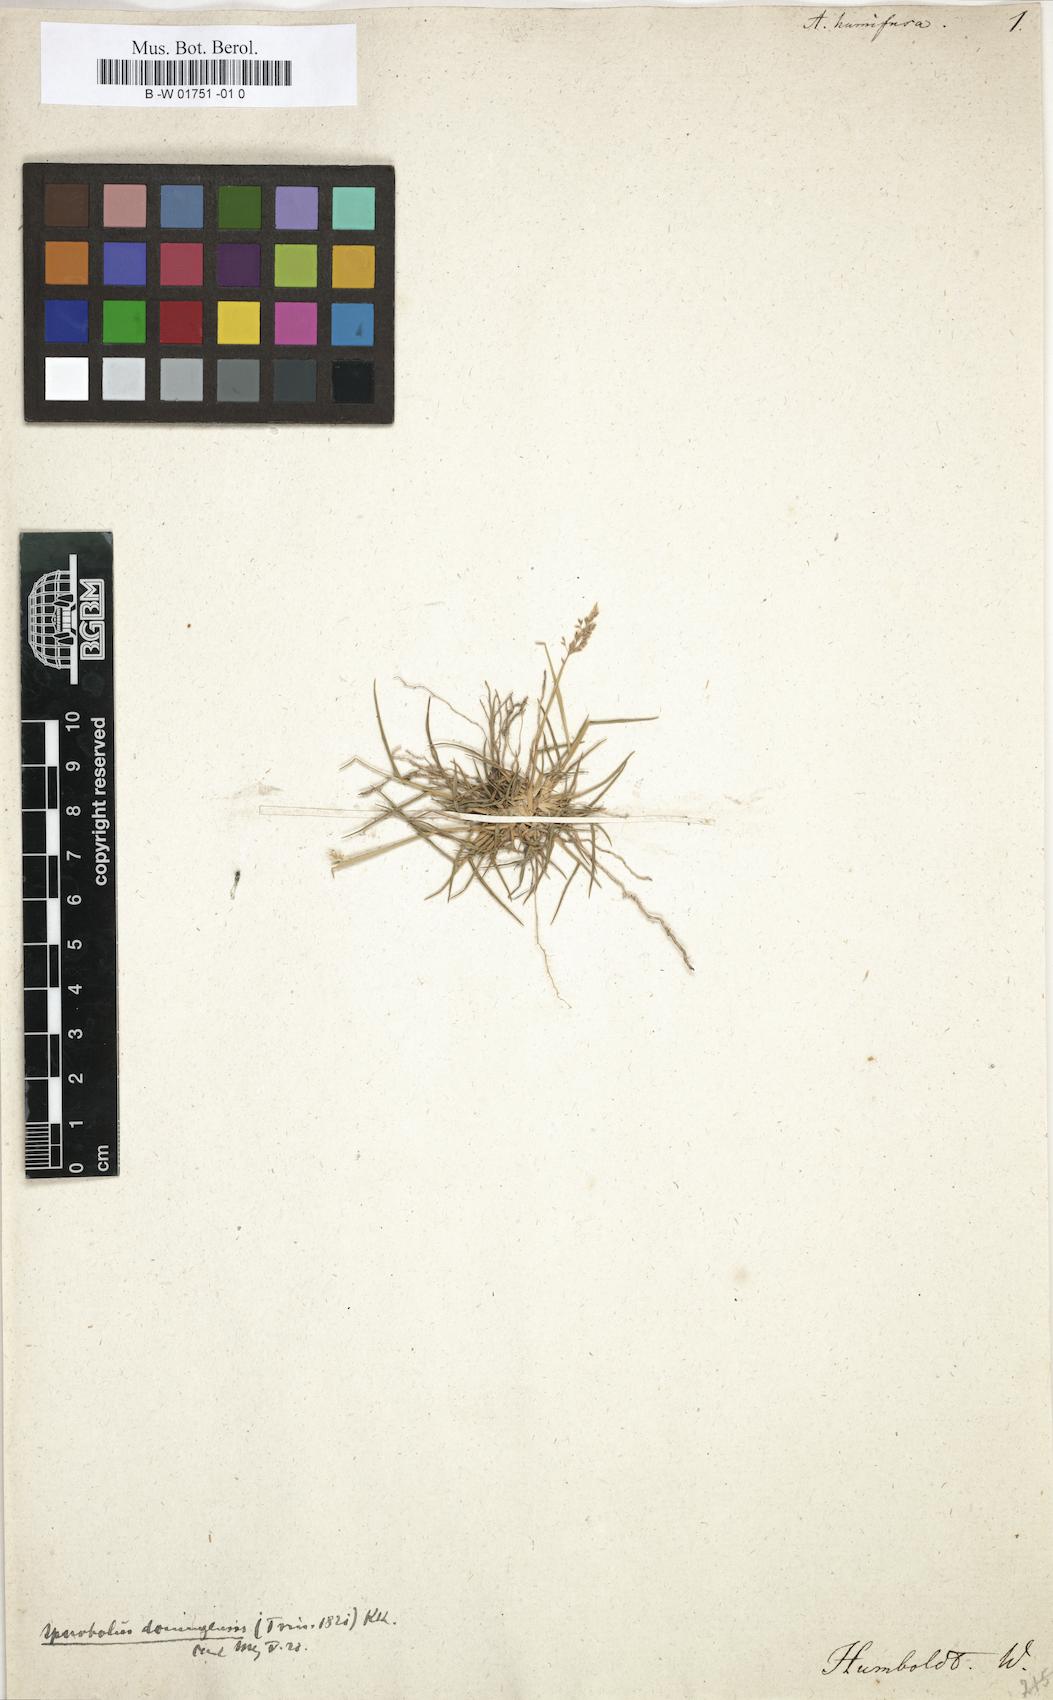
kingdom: Plantae
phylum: Tracheophyta
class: Liliopsida
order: Poales
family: Poaceae
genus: Sporobolus
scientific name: Sporobolus pyramidatus
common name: Whorled dropseed
